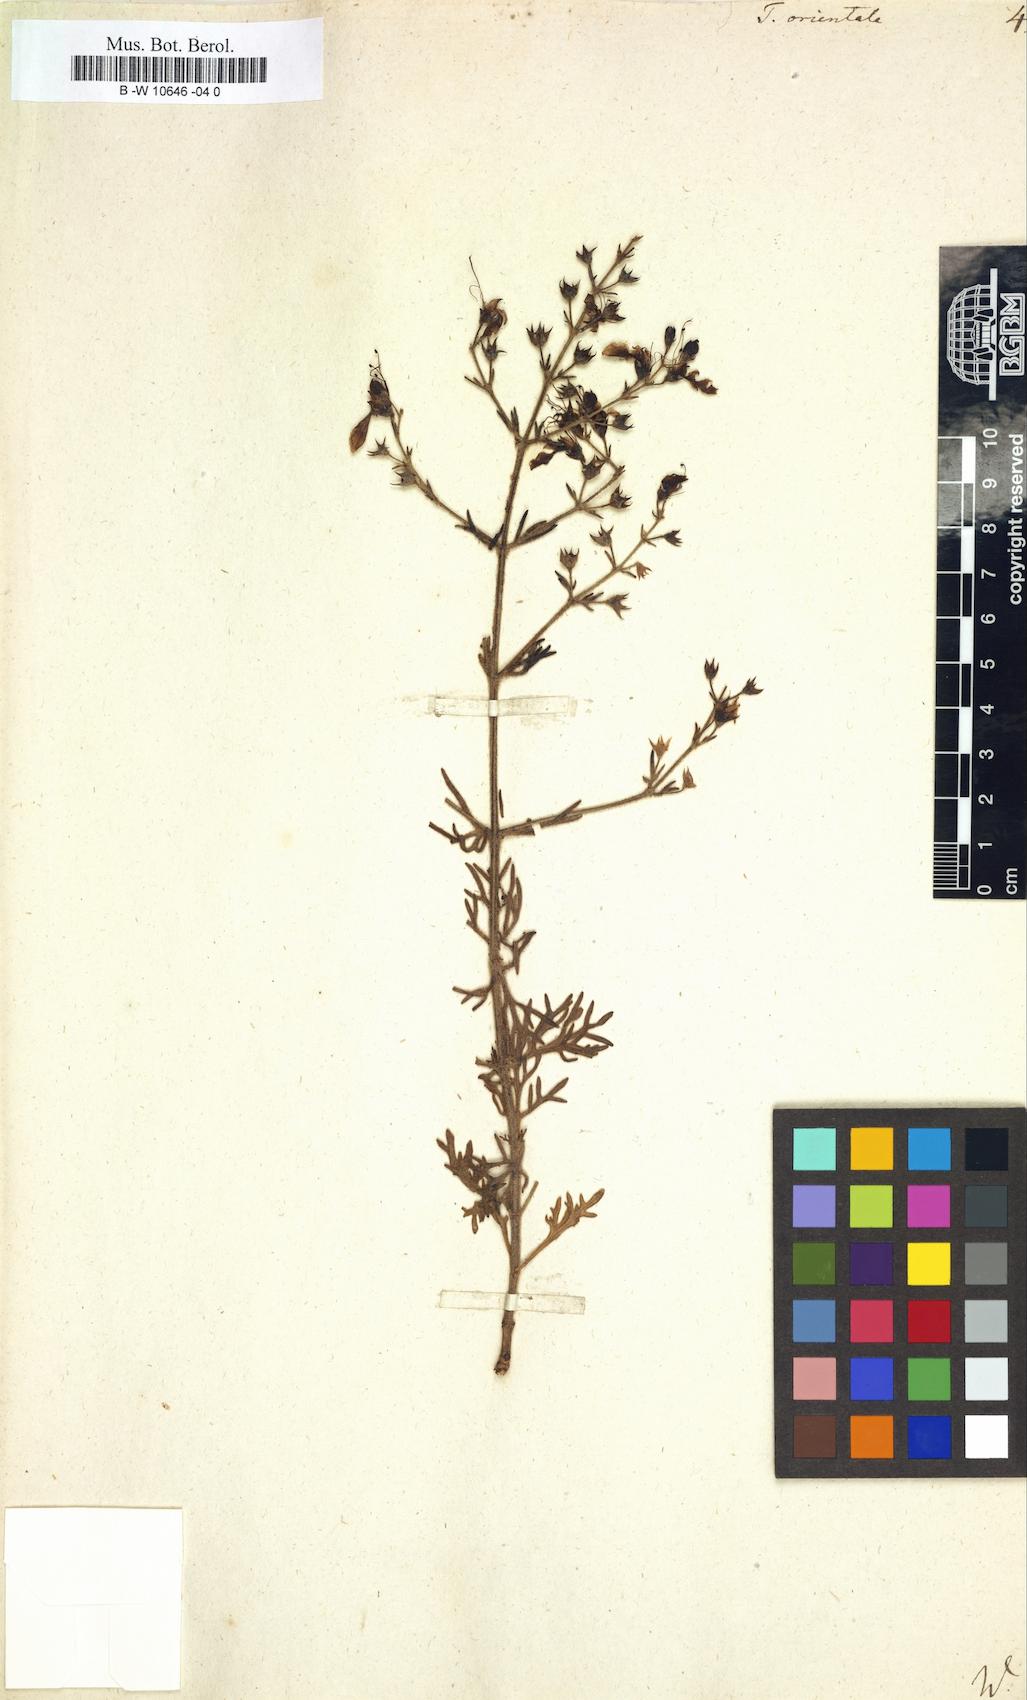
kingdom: Plantae
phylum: Tracheophyta
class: Magnoliopsida
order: Lamiales
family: Lamiaceae
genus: Teucrium
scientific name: Teucrium orientale
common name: Oriental germander
